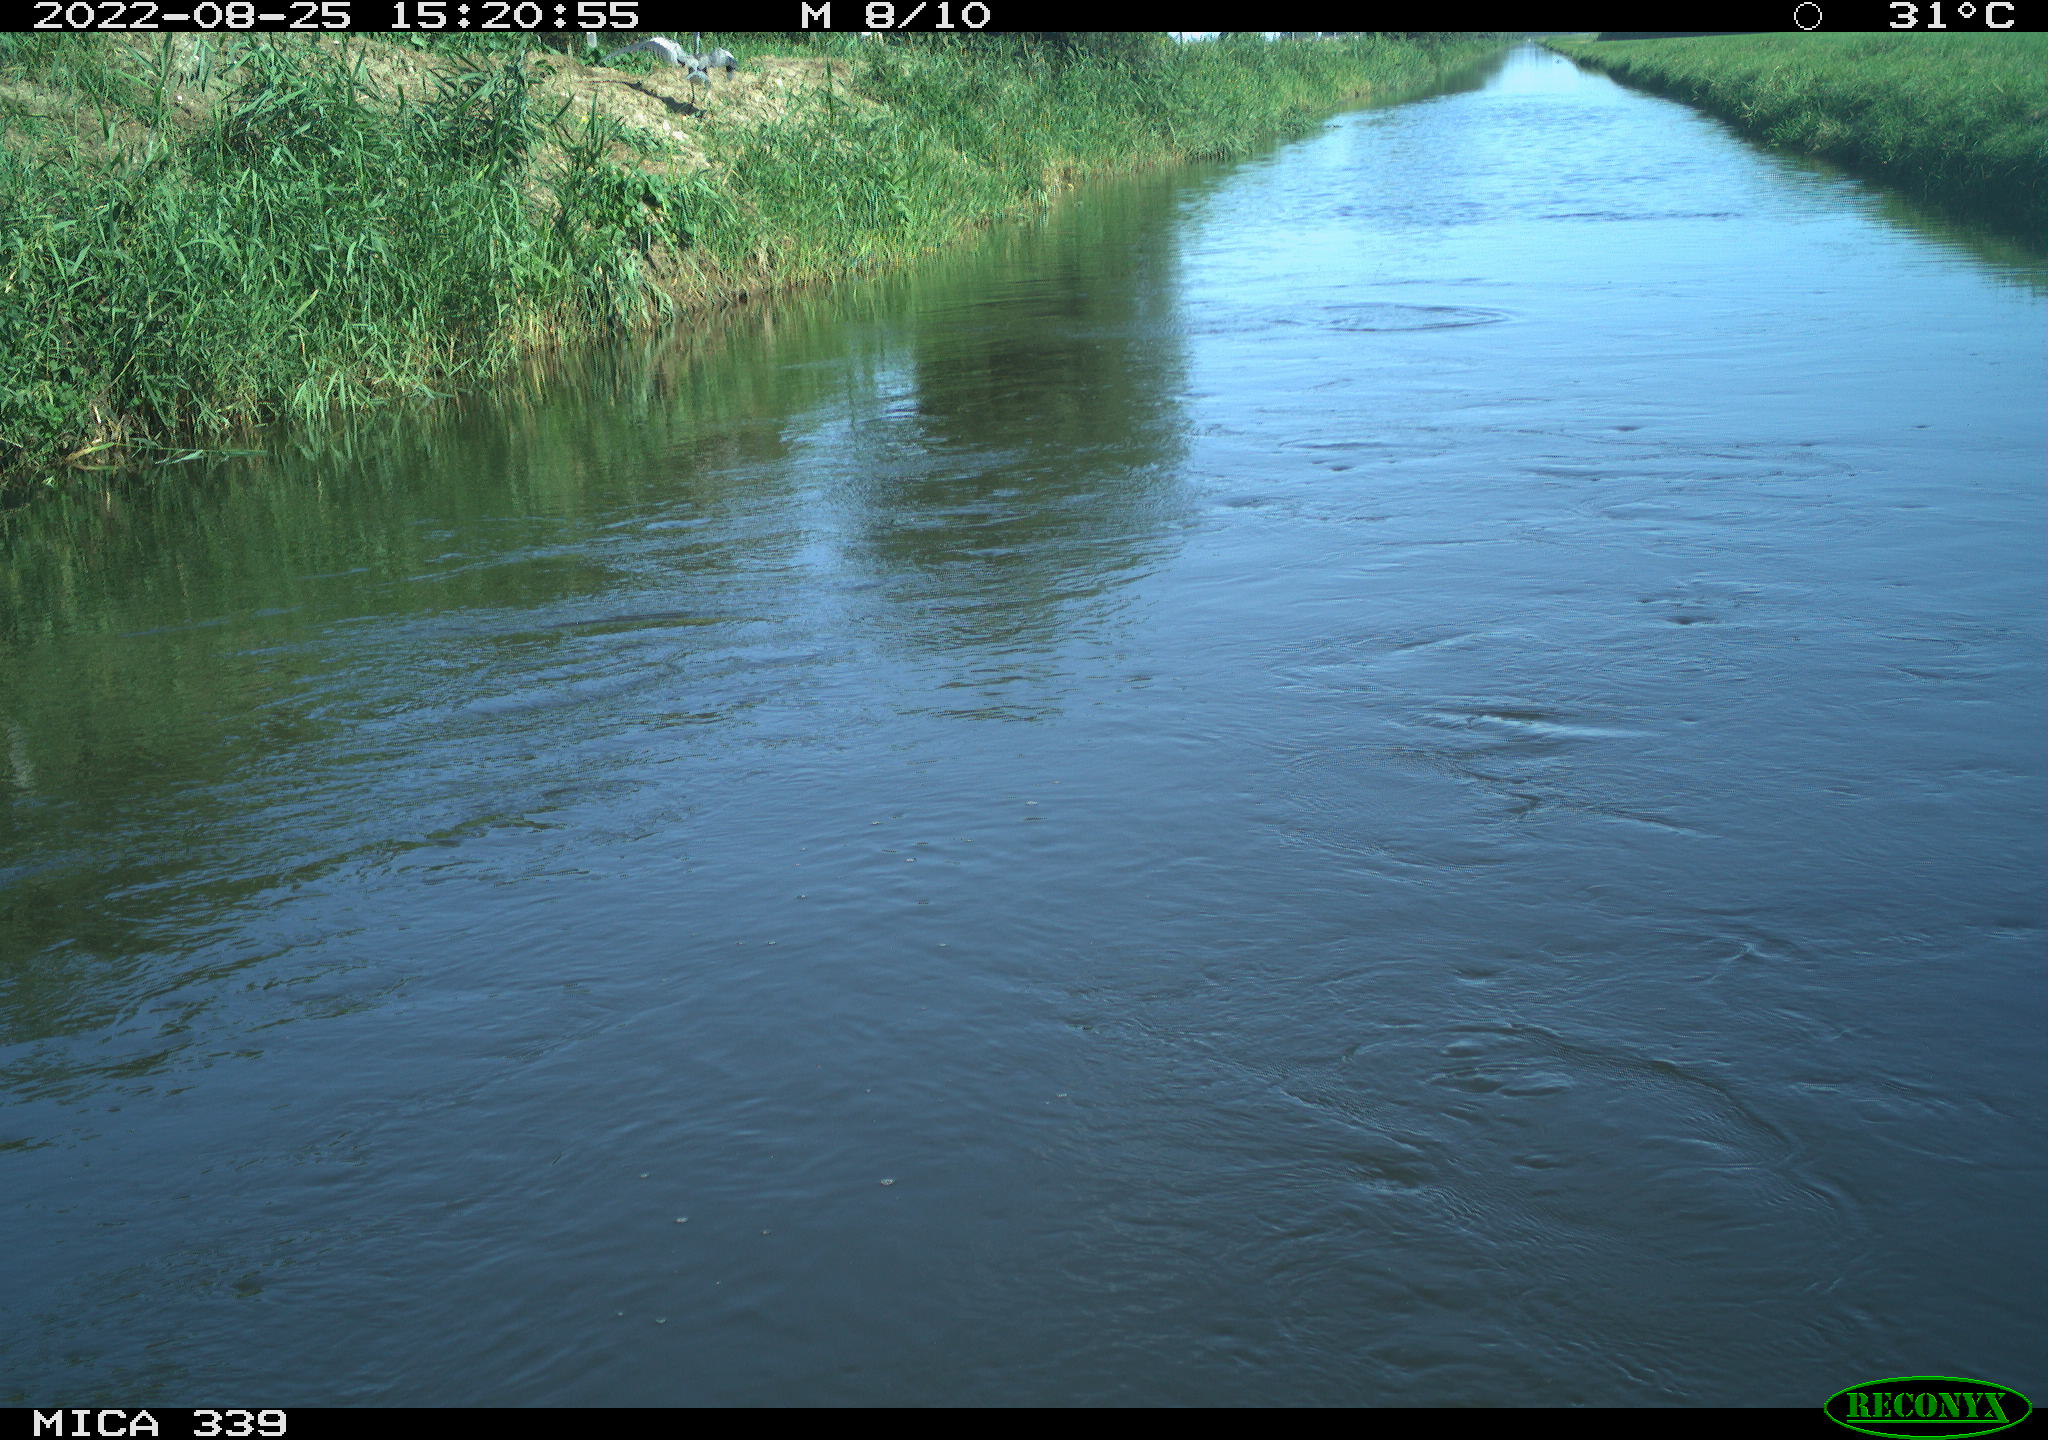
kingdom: Animalia
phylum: Chordata
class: Aves
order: Pelecaniformes
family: Ardeidae
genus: Ardea
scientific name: Ardea cinerea
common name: Grey heron
